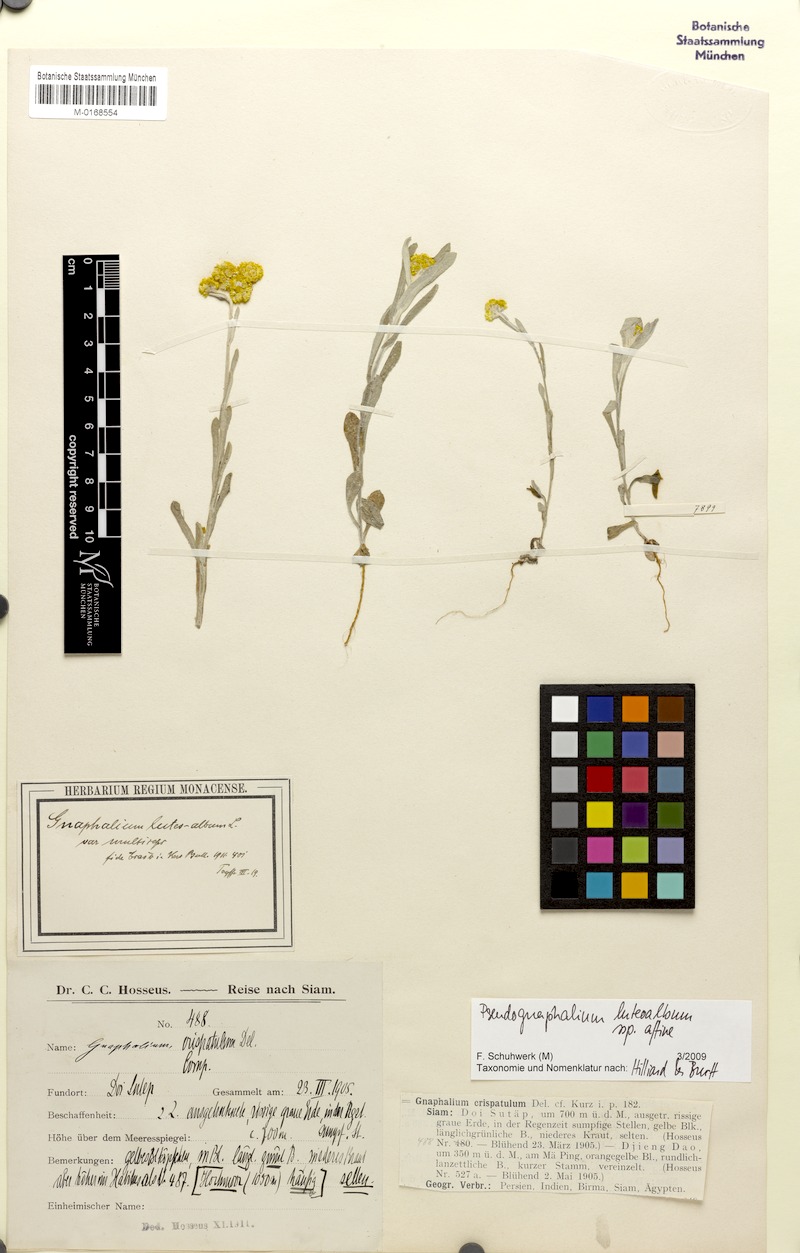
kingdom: Plantae
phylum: Tracheophyta
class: Magnoliopsida
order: Asterales
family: Asteraceae
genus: Pseudognaphalium
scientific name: Pseudognaphalium affine
